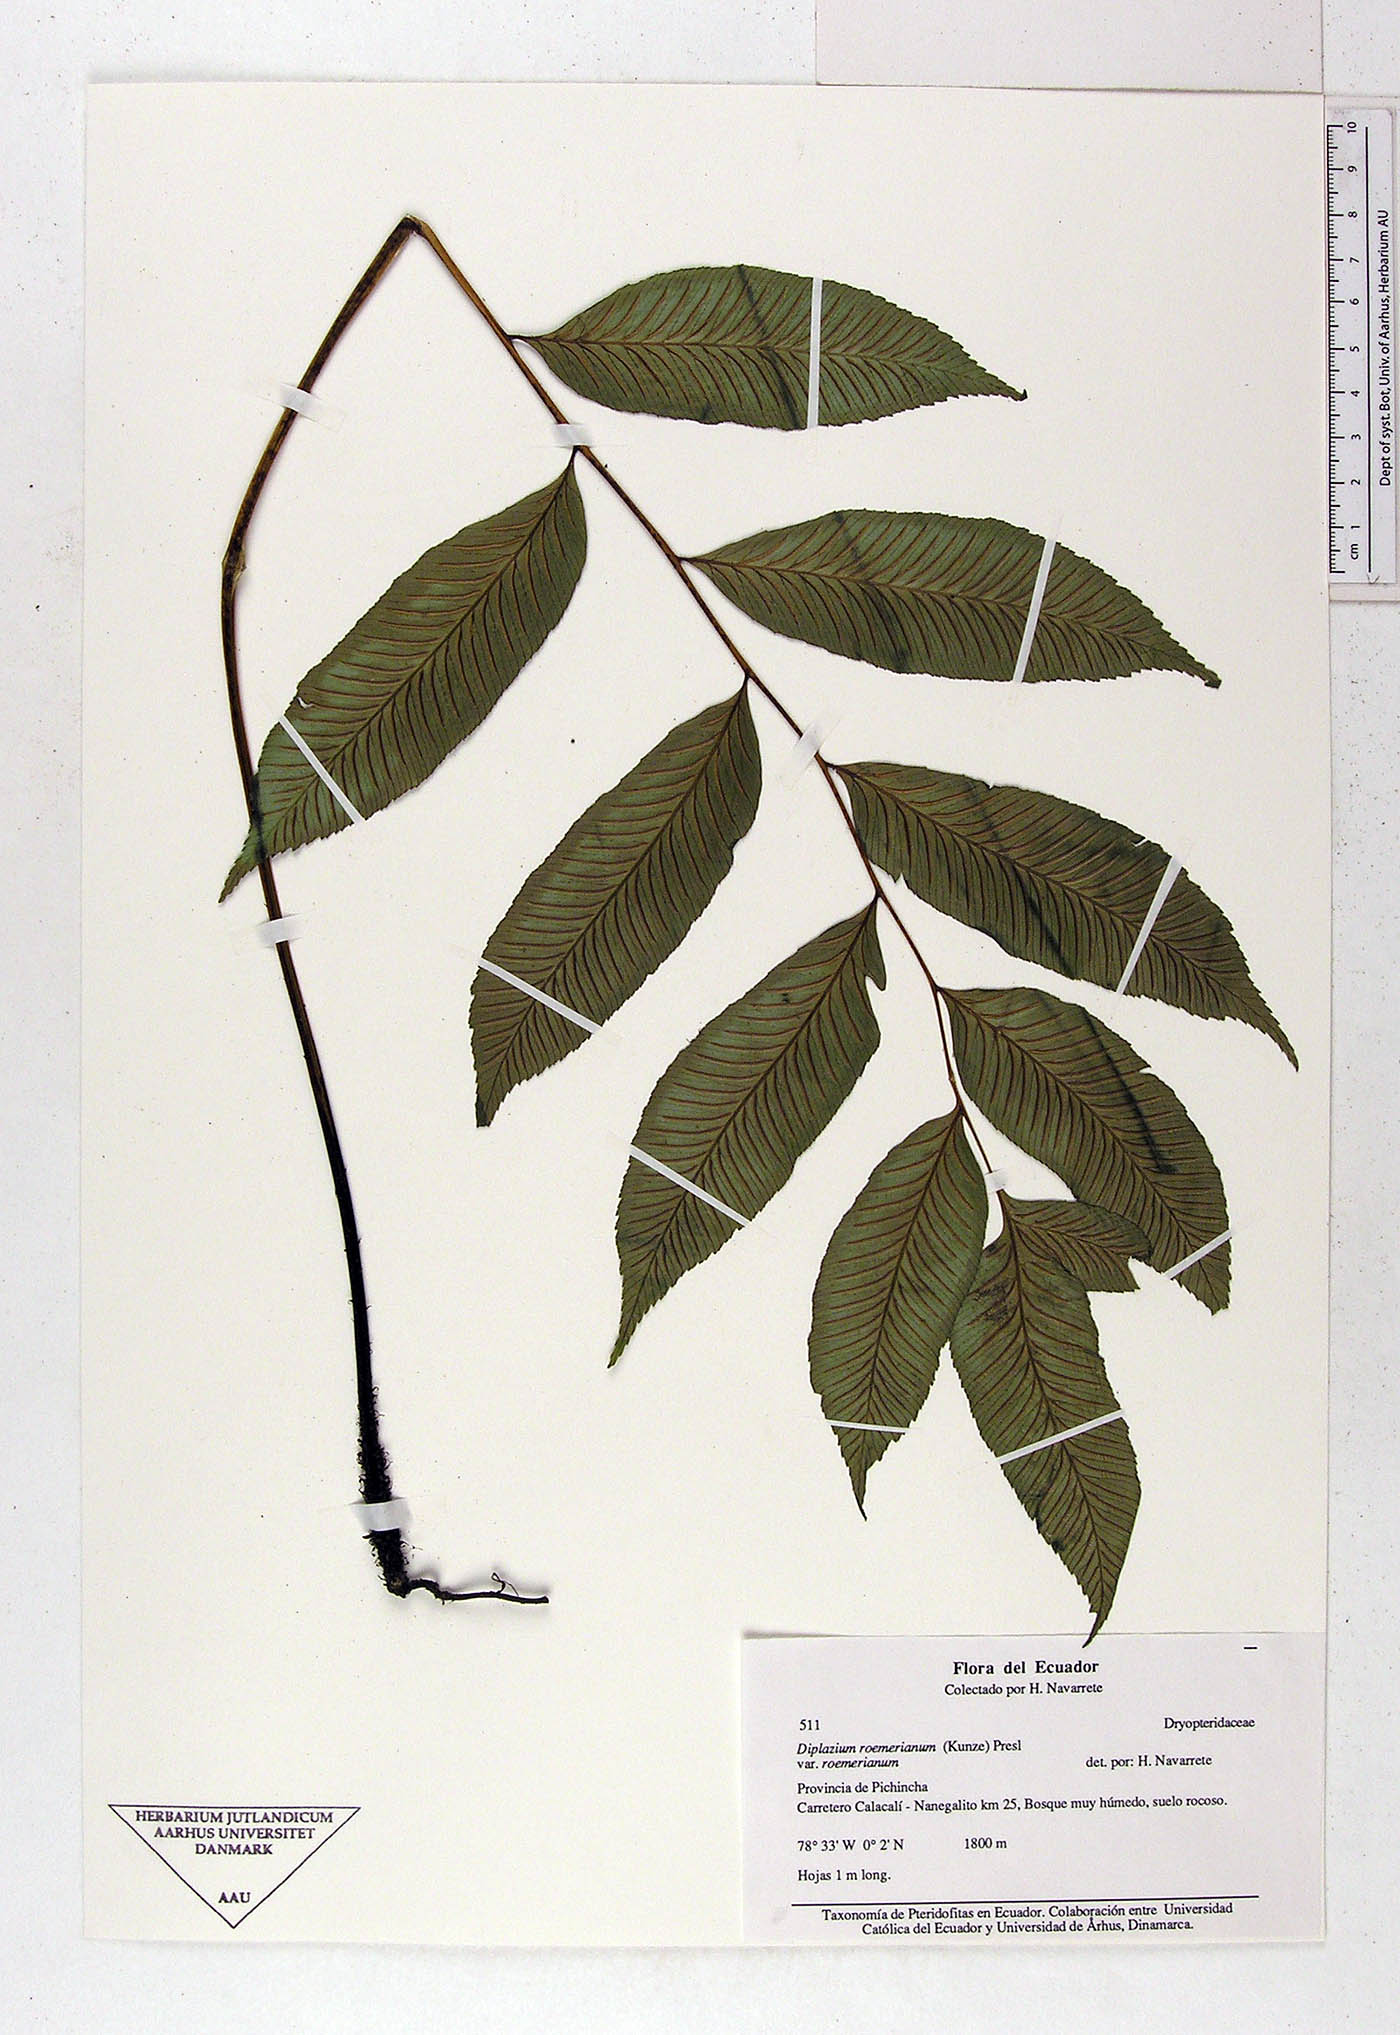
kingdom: Plantae
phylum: Tracheophyta
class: Polypodiopsida
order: Polypodiales
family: Athyriaceae
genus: Diplazium
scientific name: Diplazium
